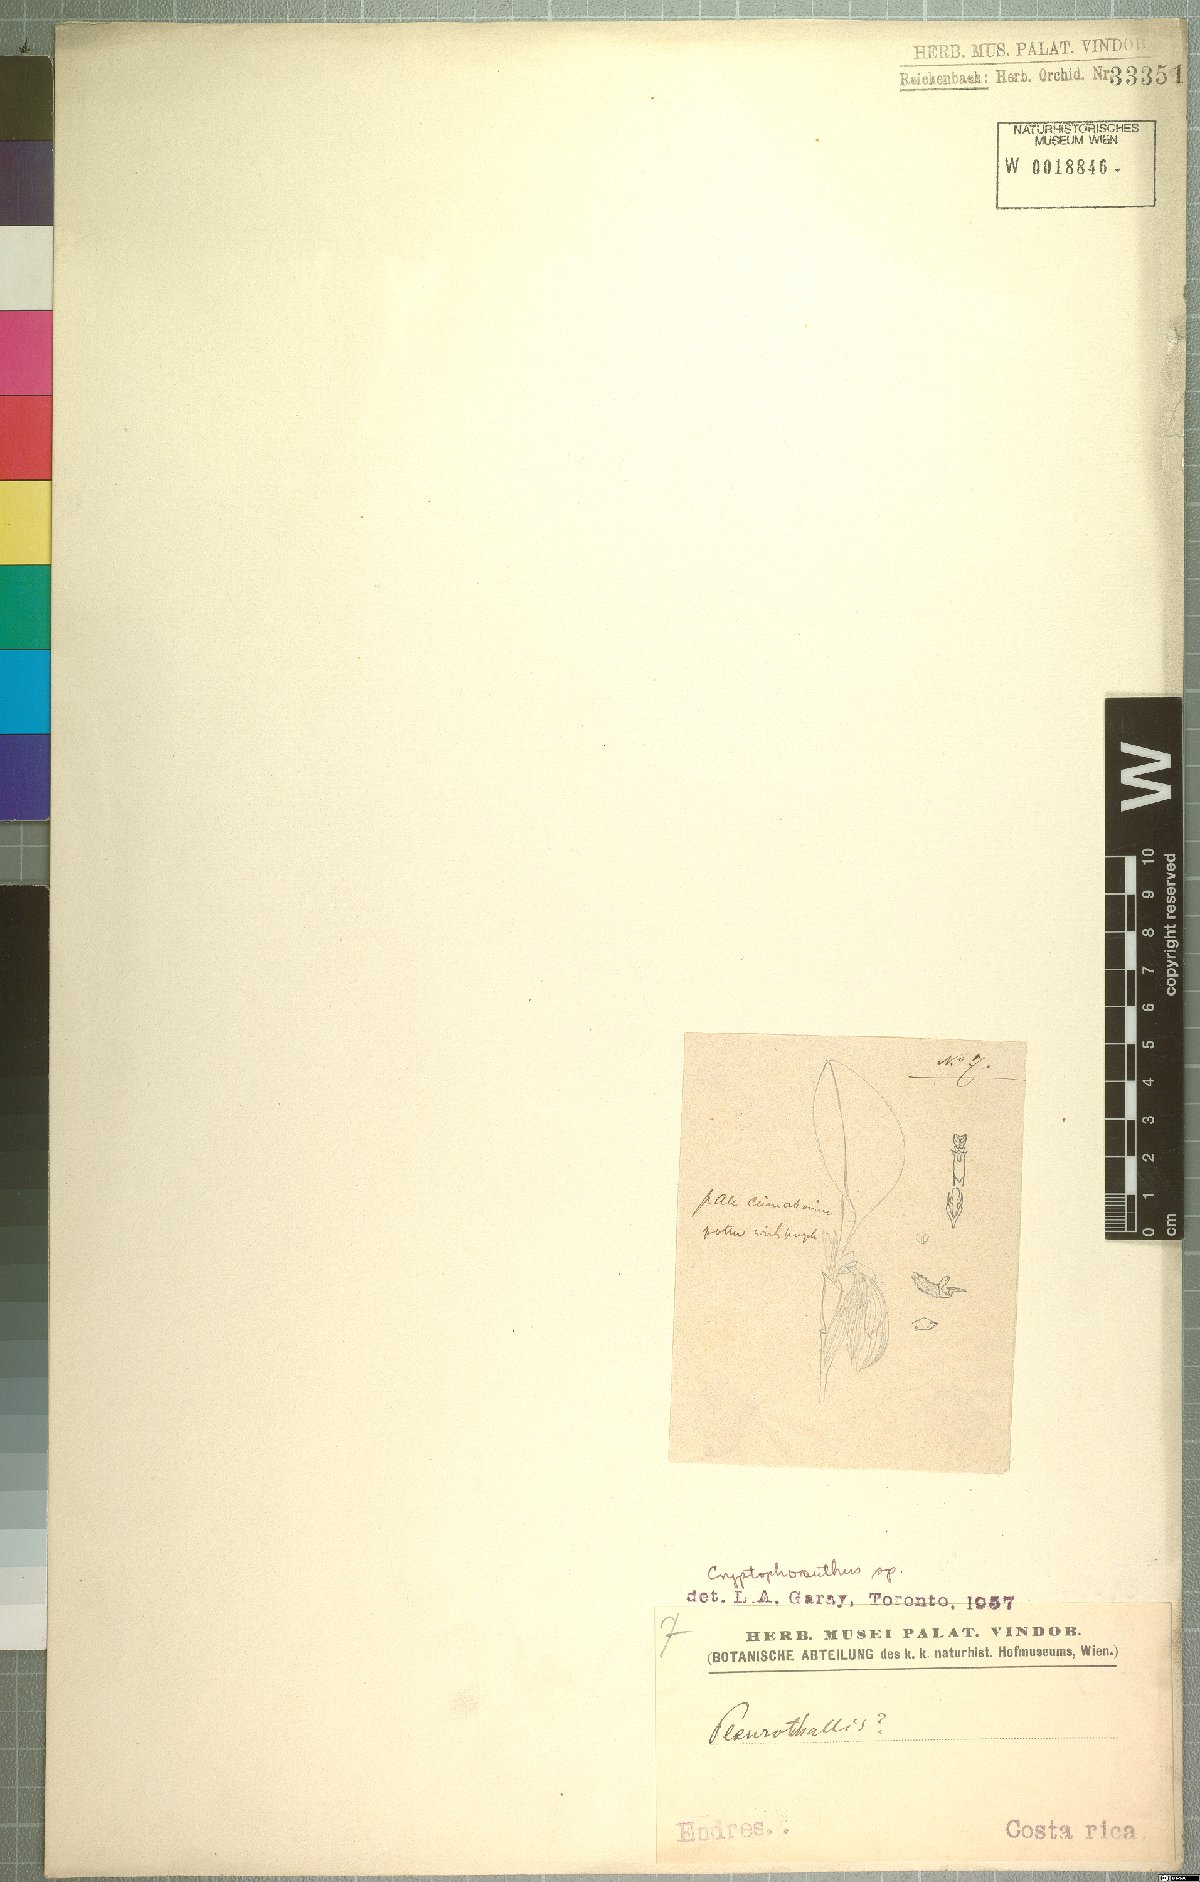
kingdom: Plantae
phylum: Tracheophyta
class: Liliopsida
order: Asparagales
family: Orchidaceae
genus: Acianthera
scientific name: Acianthera
